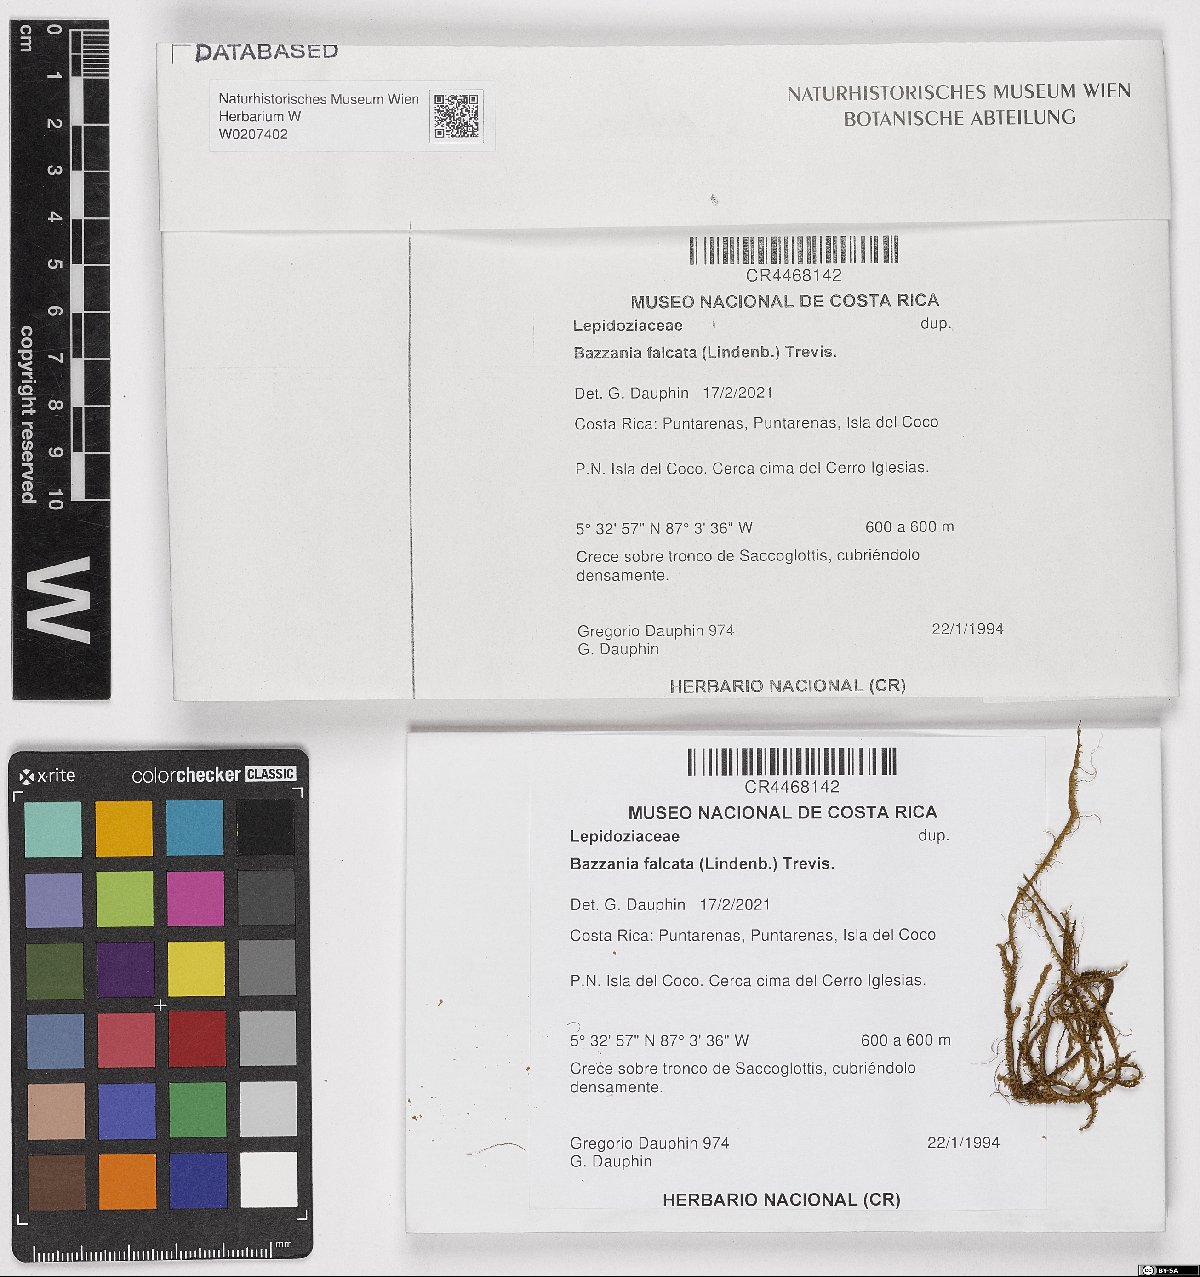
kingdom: Plantae
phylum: Marchantiophyta
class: Jungermanniopsida
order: Jungermanniales
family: Lepidoziaceae
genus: Bazzania
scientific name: Bazzania falcata
